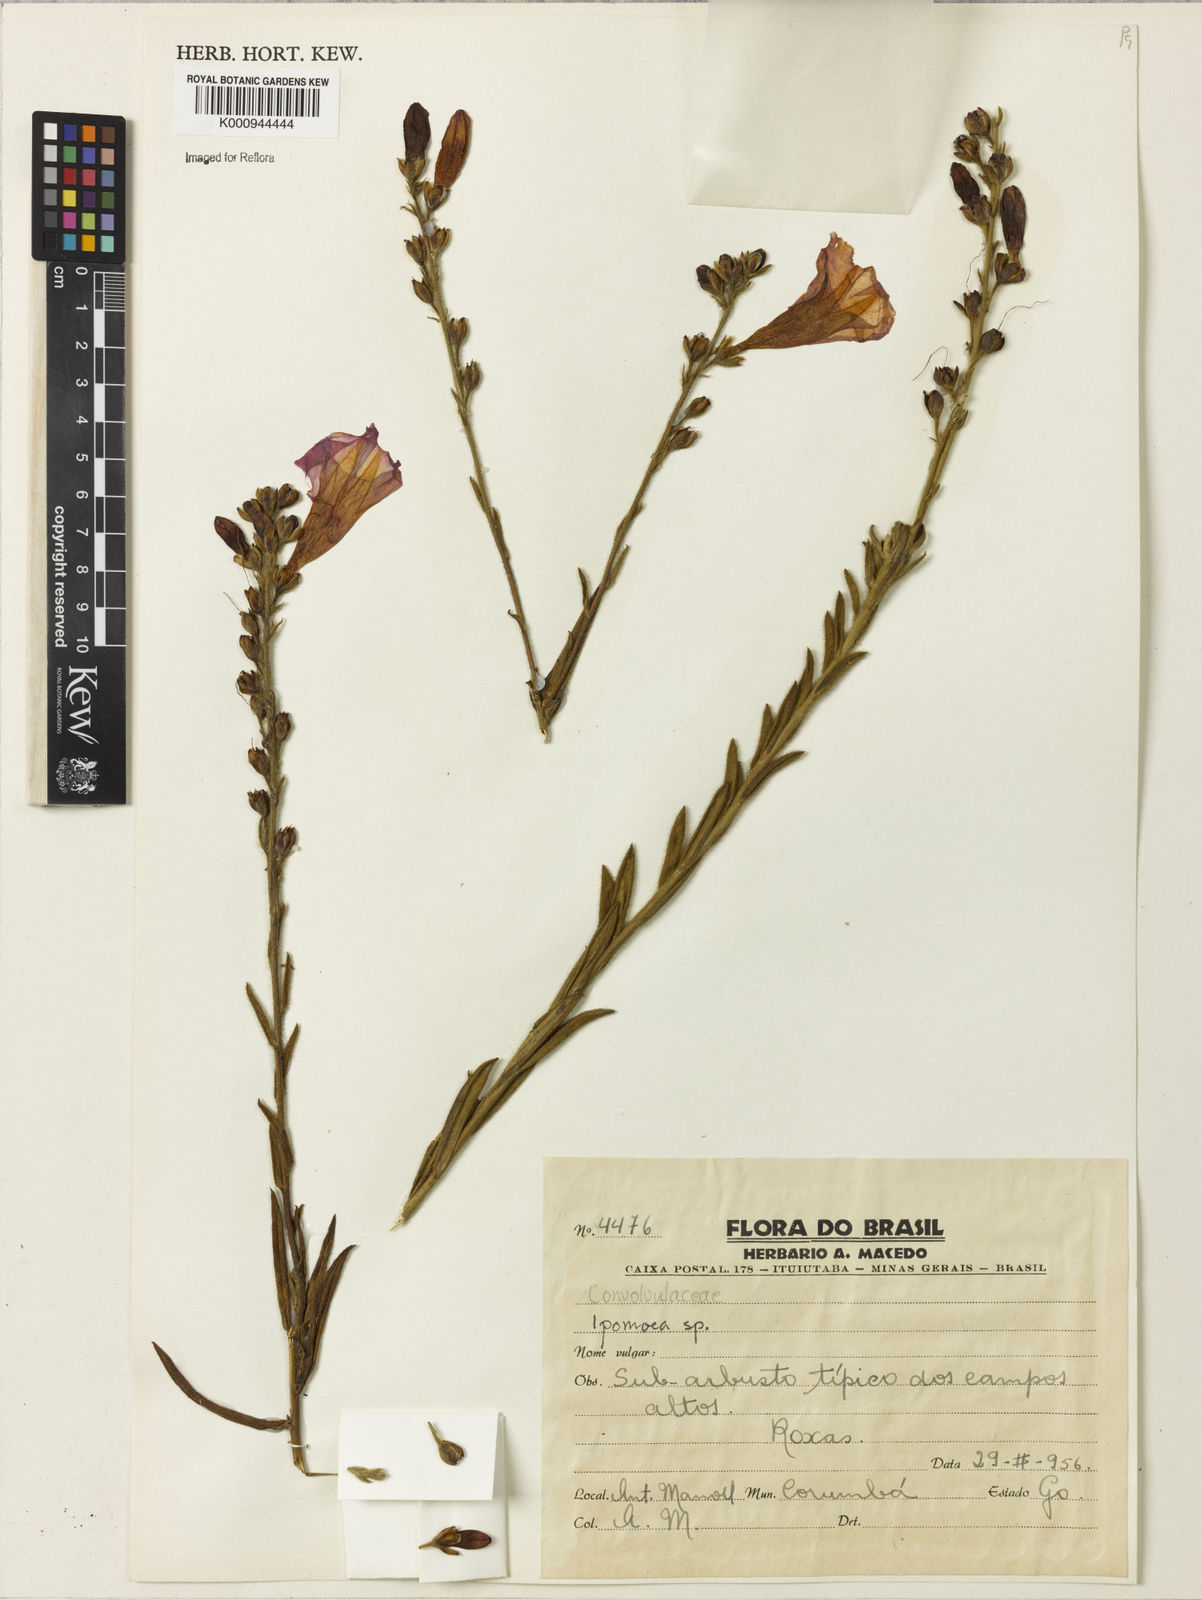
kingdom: Plantae
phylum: Tracheophyta
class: Magnoliopsida
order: Solanales
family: Convolvulaceae
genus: Ipomoea
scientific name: Ipomoea paulistana
